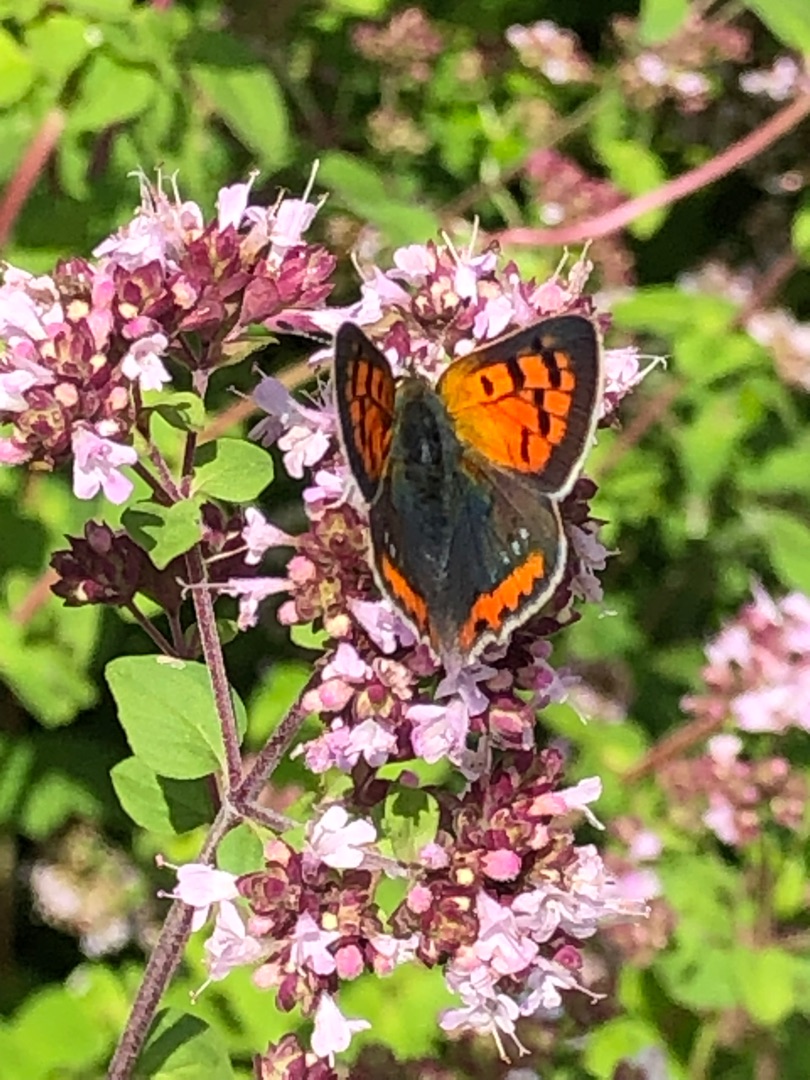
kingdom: Animalia
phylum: Arthropoda
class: Insecta
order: Lepidoptera
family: Lycaenidae
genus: Lycaena
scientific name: Lycaena phlaeas
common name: Lille ildfugl
